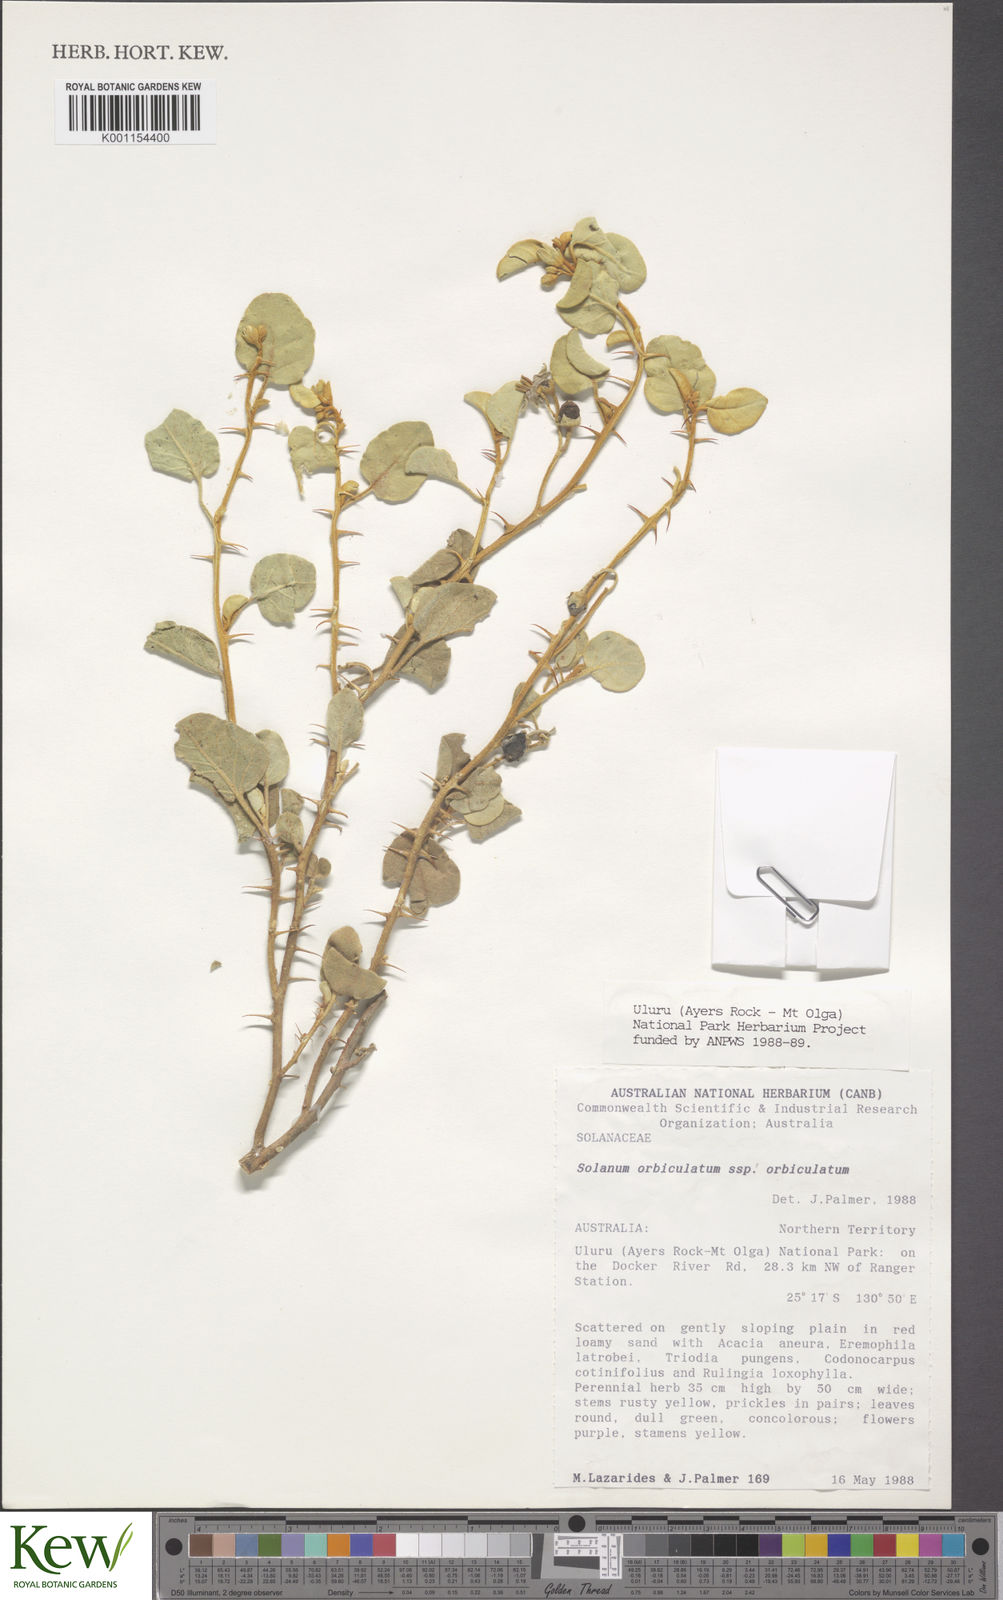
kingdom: Plantae
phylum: Tracheophyta
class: Magnoliopsida
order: Solanales
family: Solanaceae
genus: Solanum
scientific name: Solanum orbiculatum
